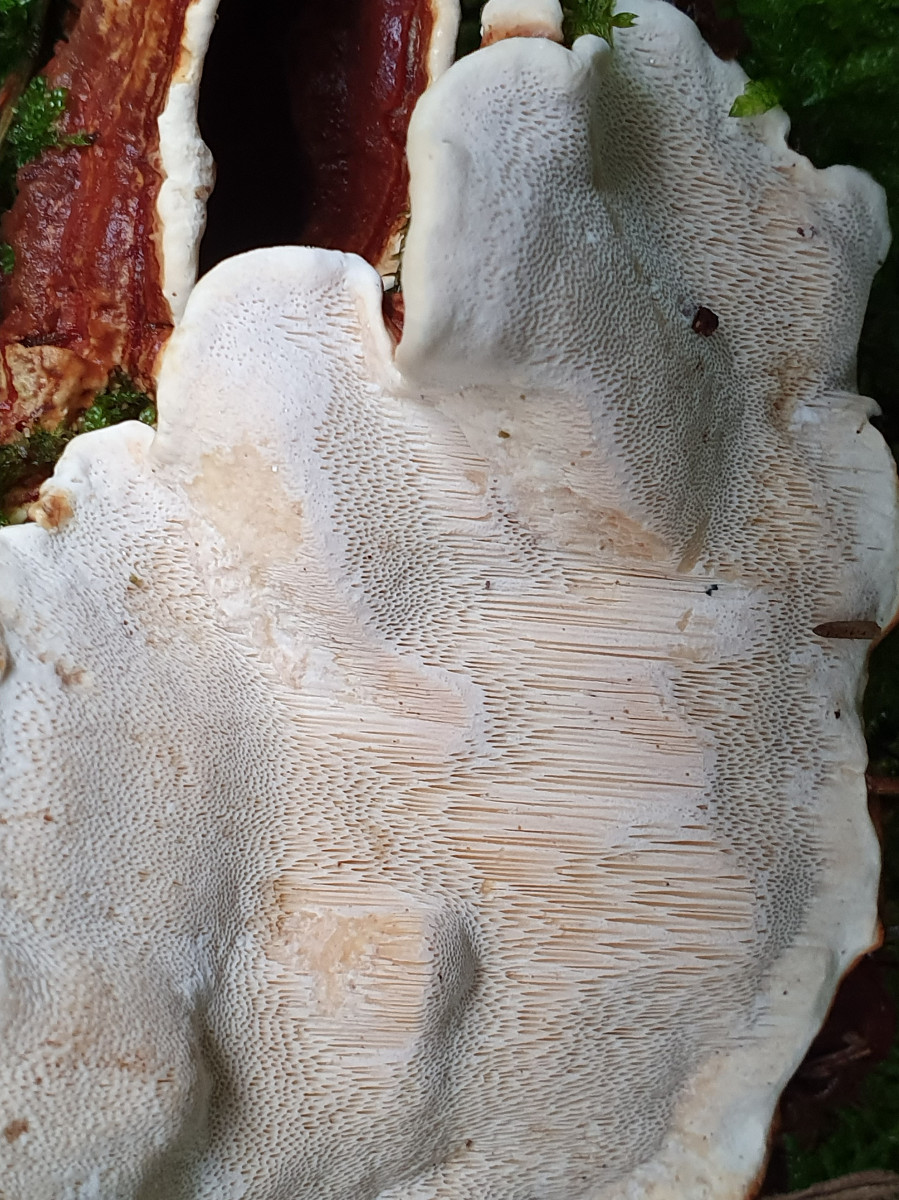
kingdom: Fungi
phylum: Basidiomycota
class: Agaricomycetes
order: Russulales
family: Bondarzewiaceae
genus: Heterobasidion
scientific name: Heterobasidion annosum
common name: almindelig rodfordærver
